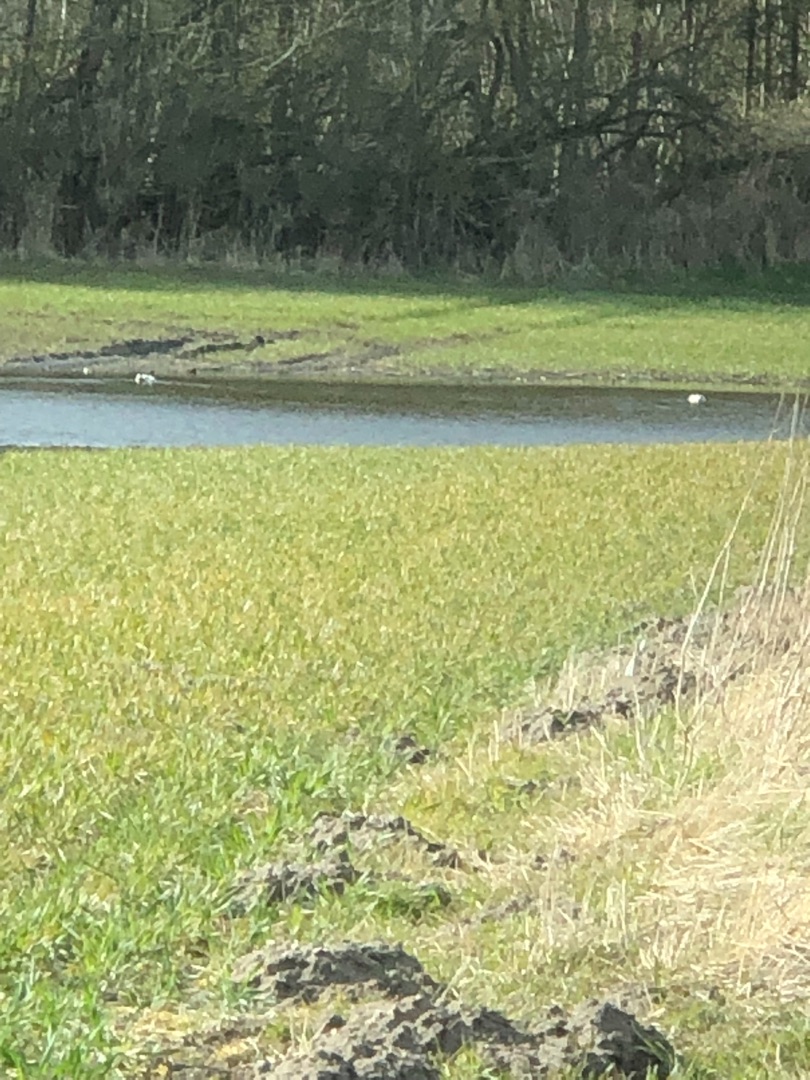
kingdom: Animalia
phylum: Chordata
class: Aves
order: Anseriformes
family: Anatidae
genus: Tadorna
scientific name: Tadorna tadorna
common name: Gravand
